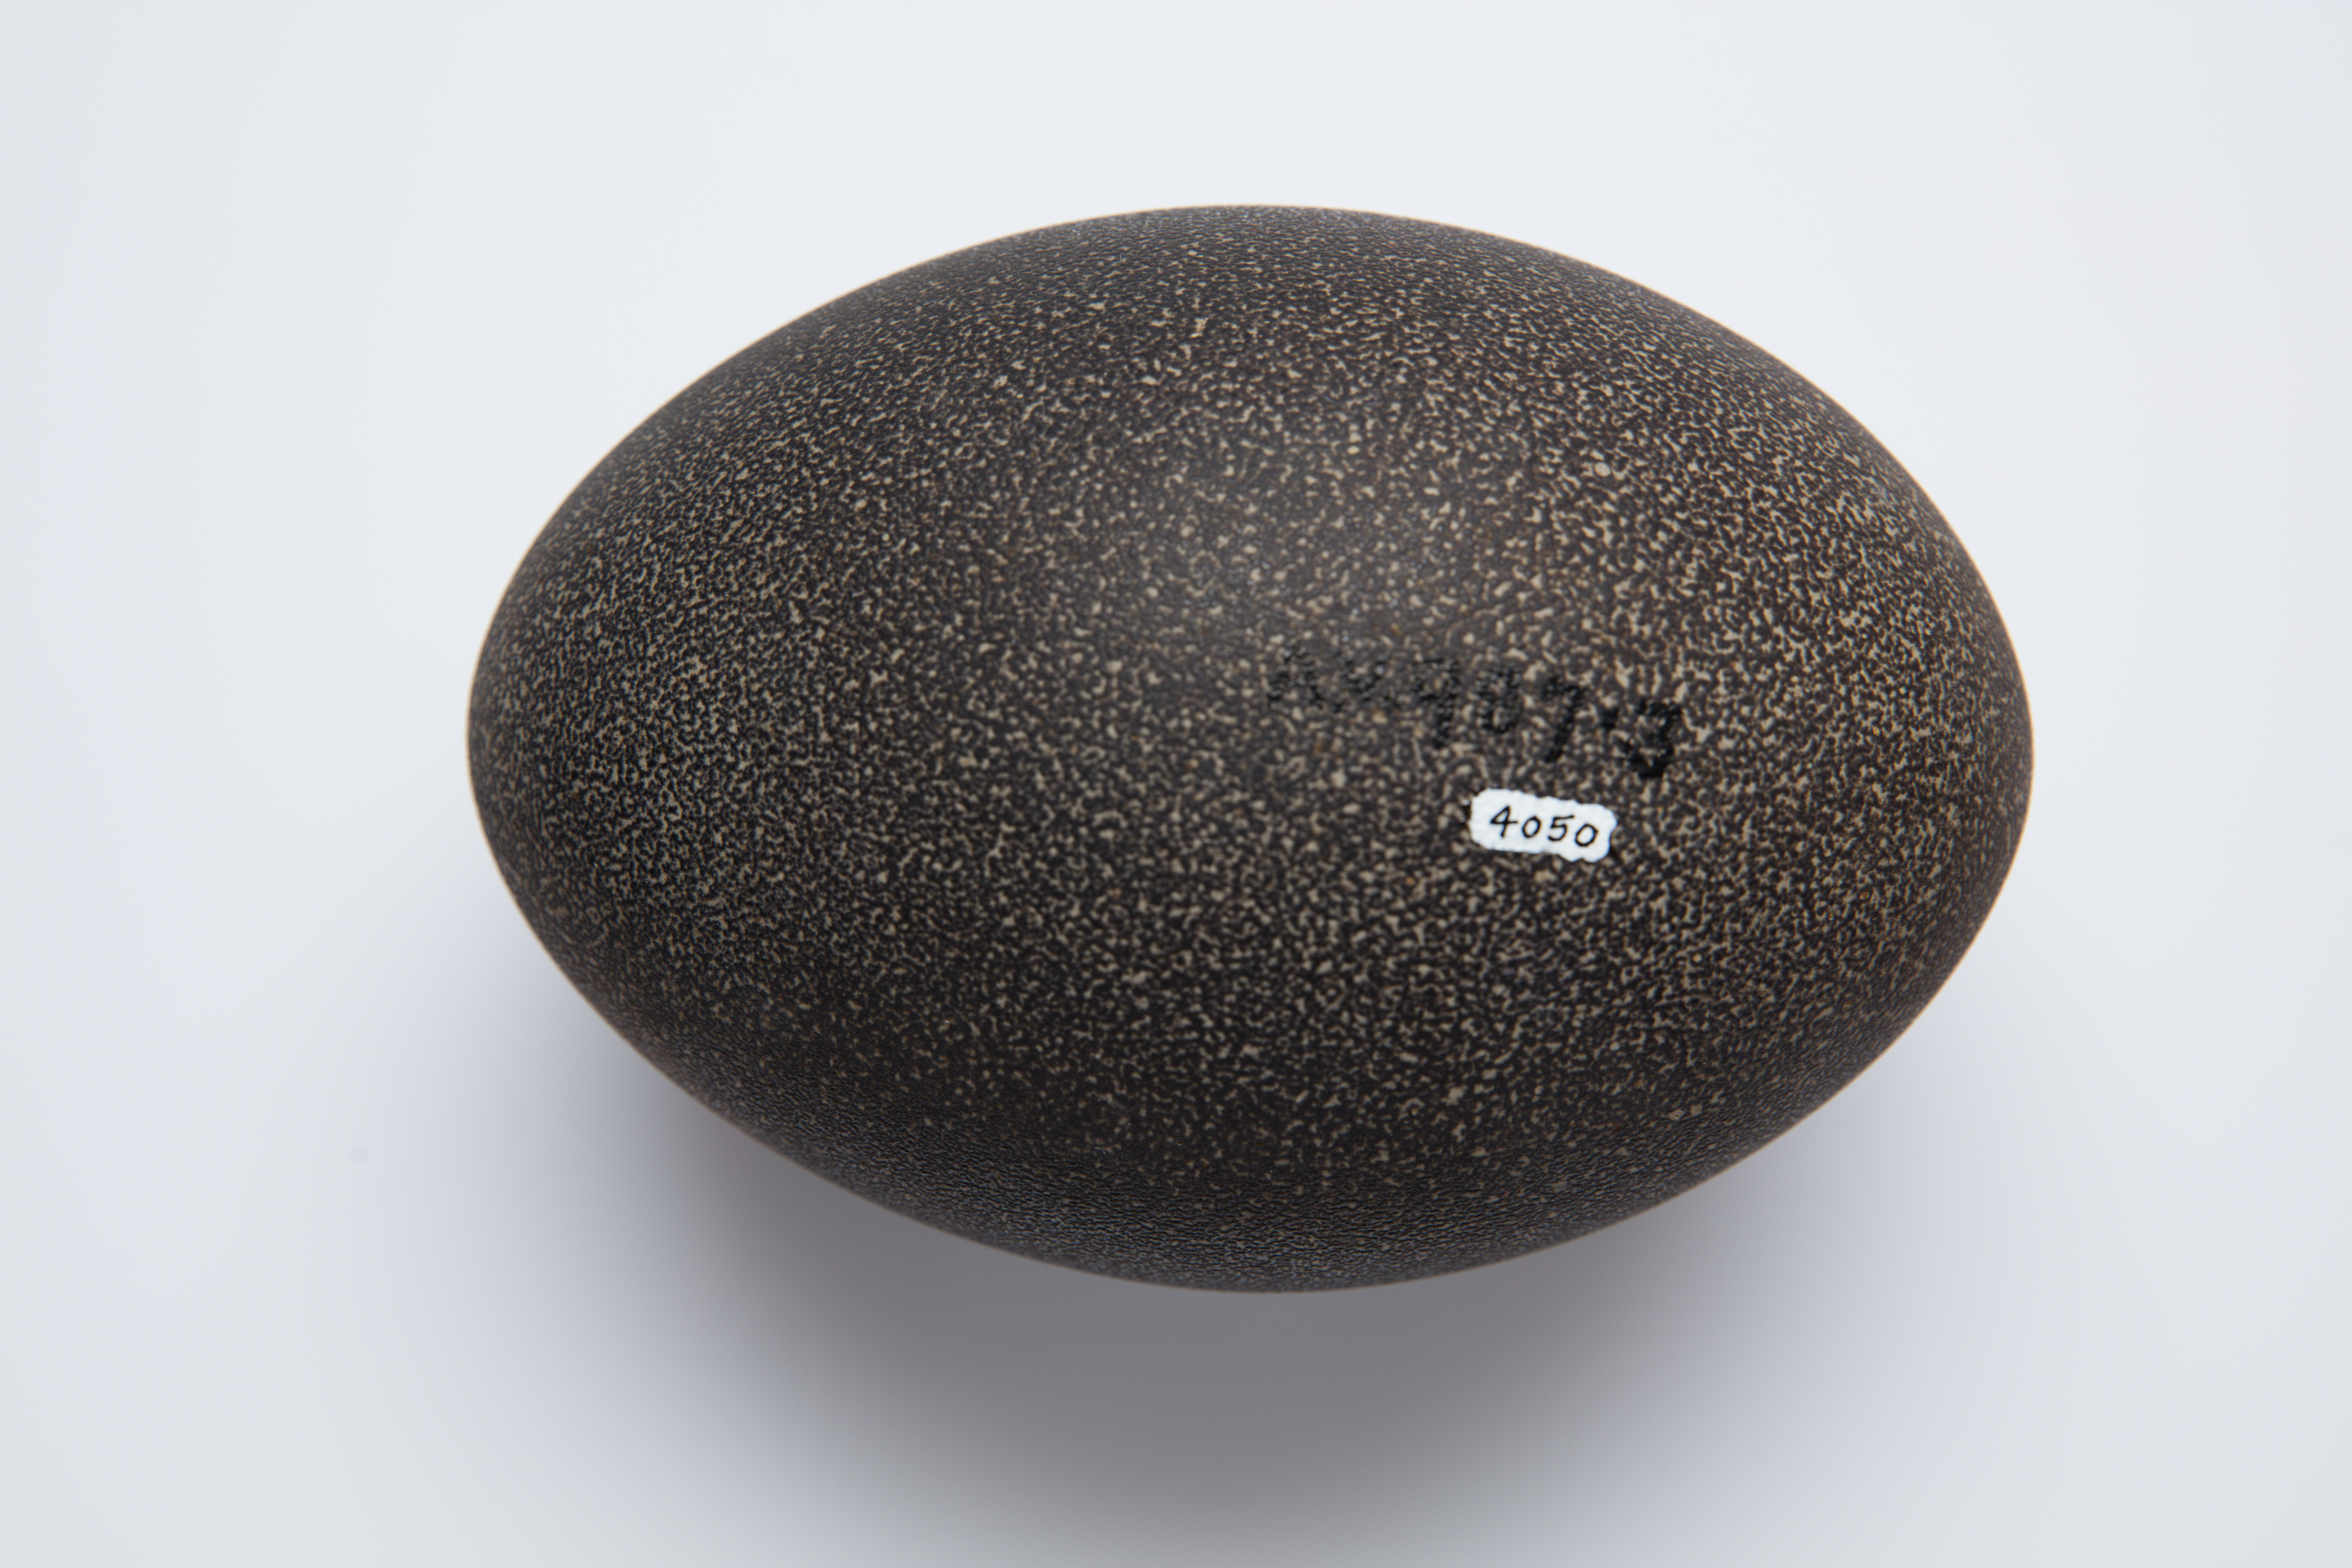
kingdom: Animalia
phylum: Chordata
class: Aves
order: Casuariiformes
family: Dromaiidae
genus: Dromaius
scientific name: Dromaius novaehollandiae
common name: Emu
